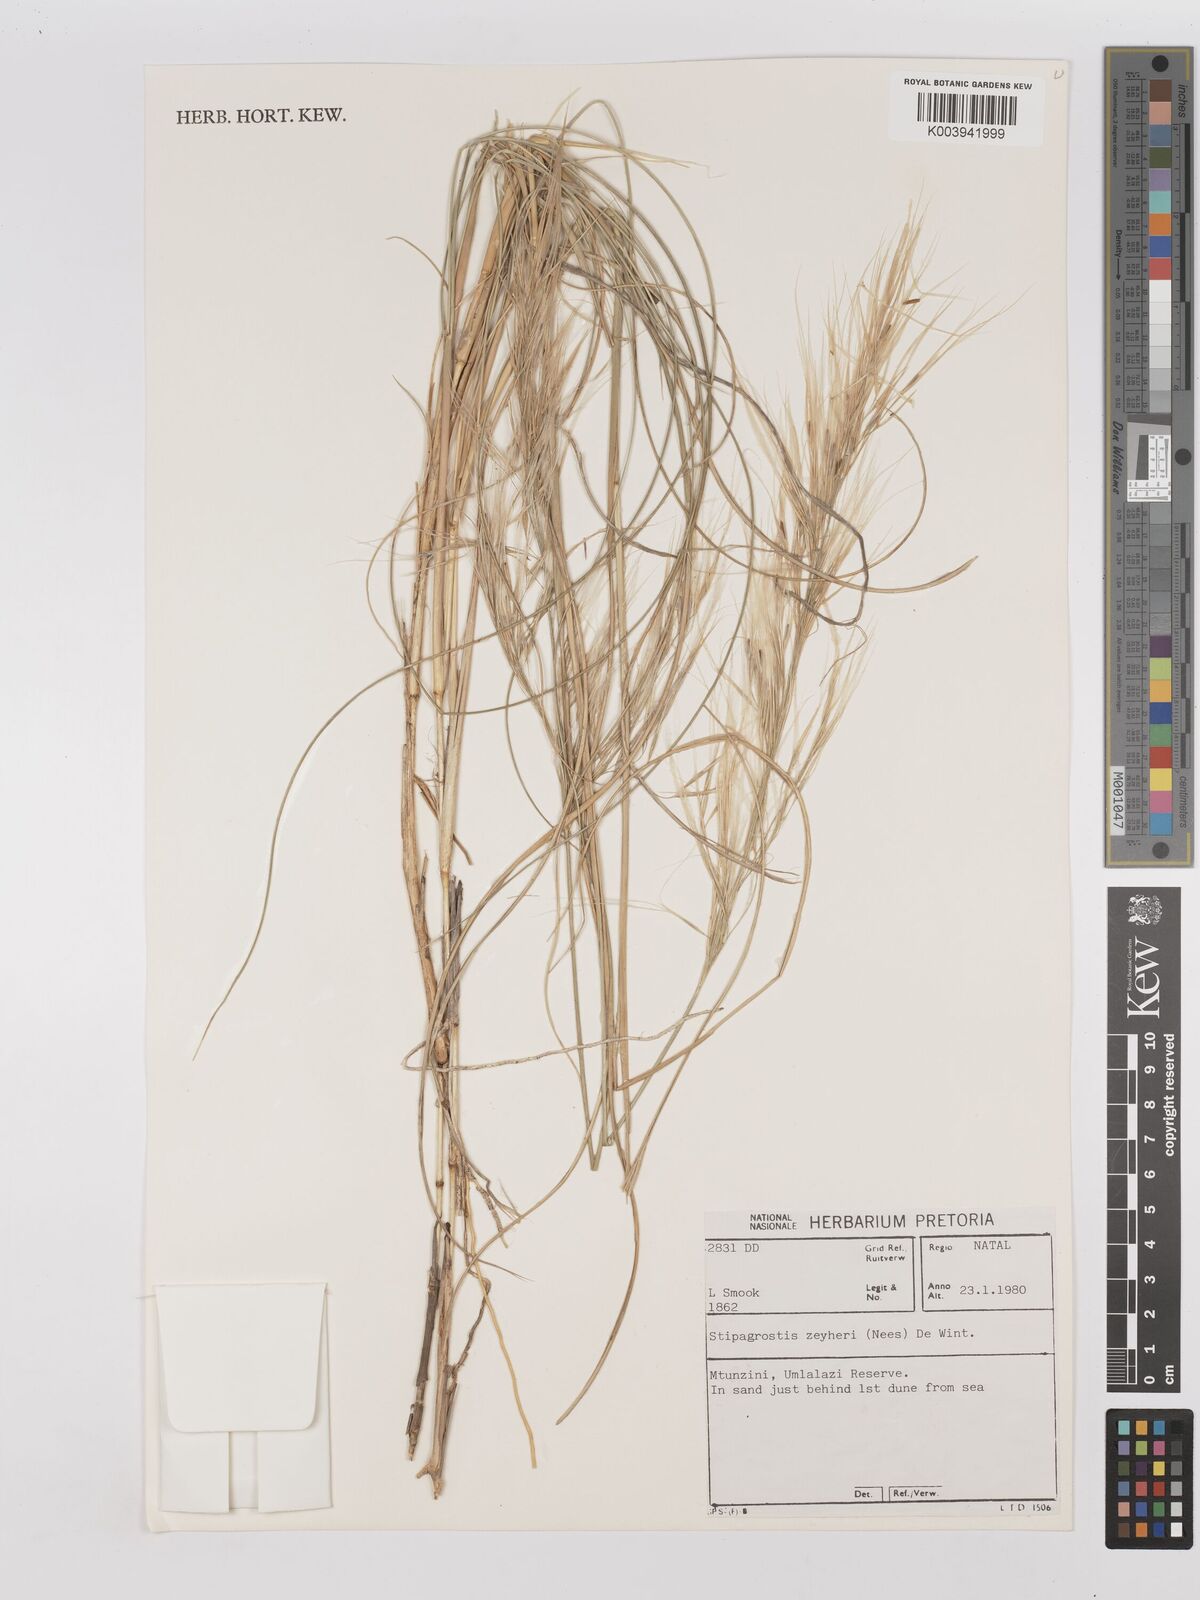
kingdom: Plantae
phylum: Tracheophyta
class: Liliopsida
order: Poales
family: Poaceae
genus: Stipagrostis
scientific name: Stipagrostis zeyheri
